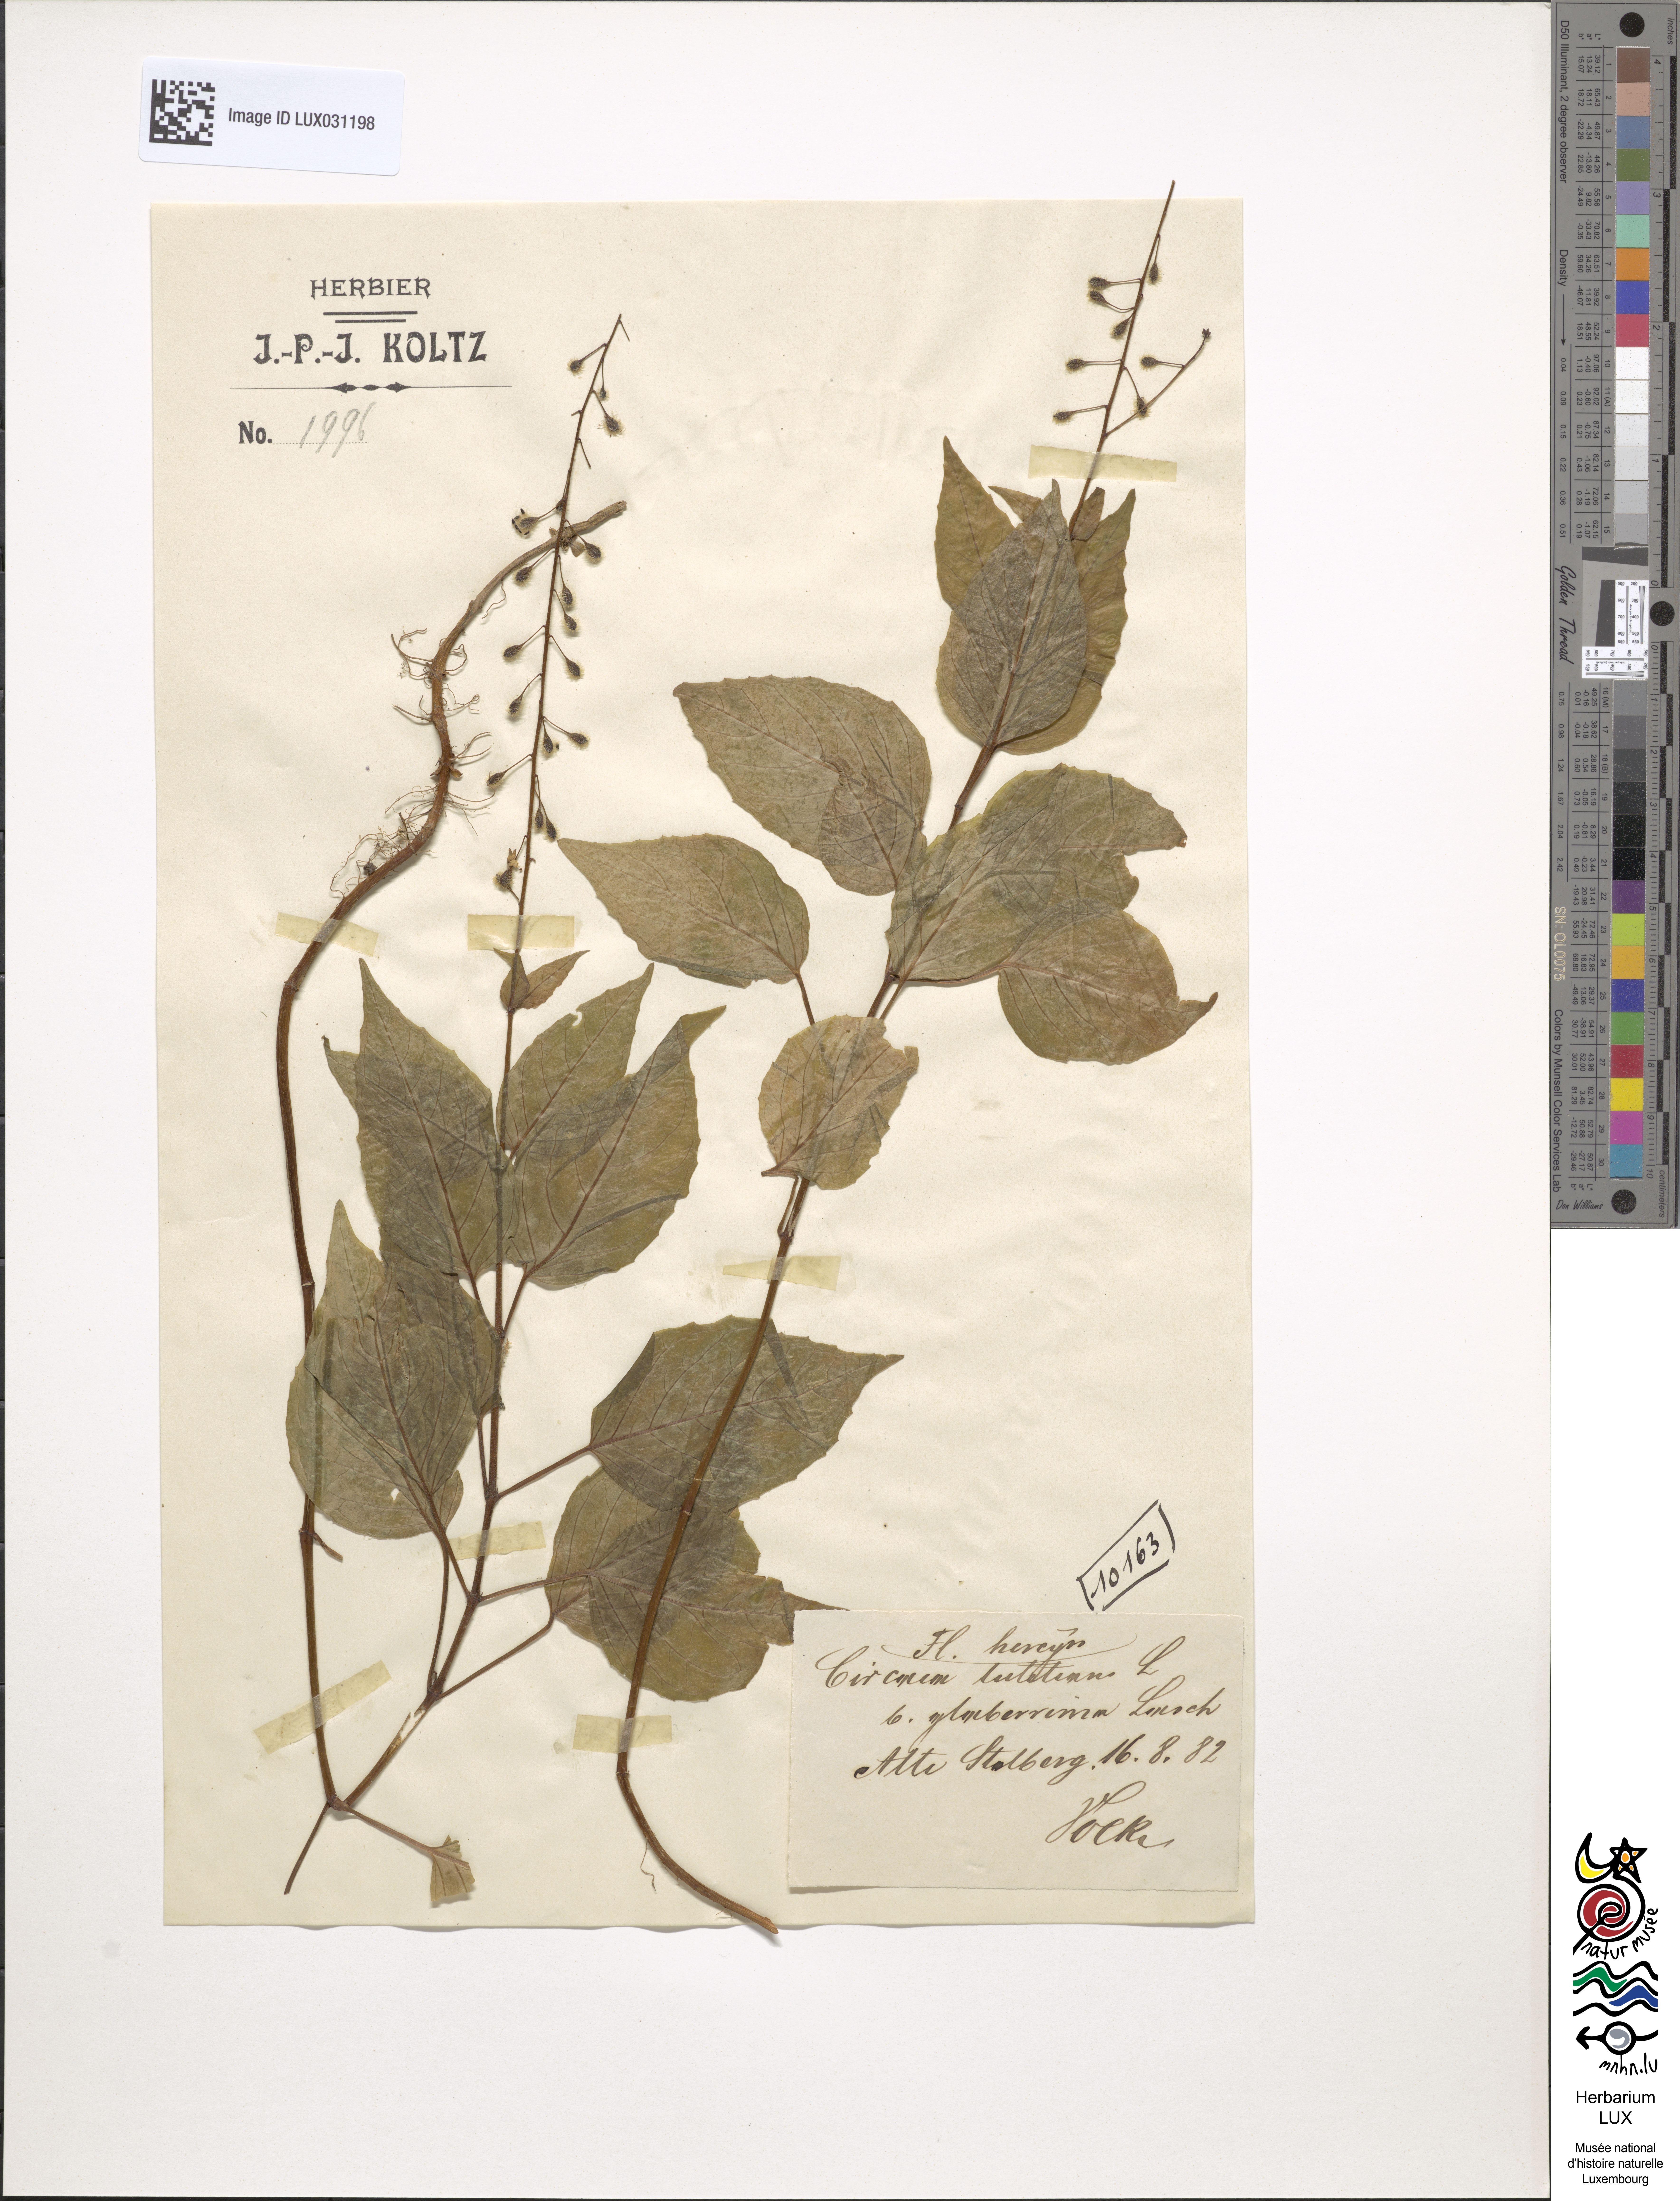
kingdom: Plantae
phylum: Tracheophyta
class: Magnoliopsida
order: Myrtales
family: Onagraceae
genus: Circaea
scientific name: Circaea lutetiana
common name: Enchanter's-nightshade
